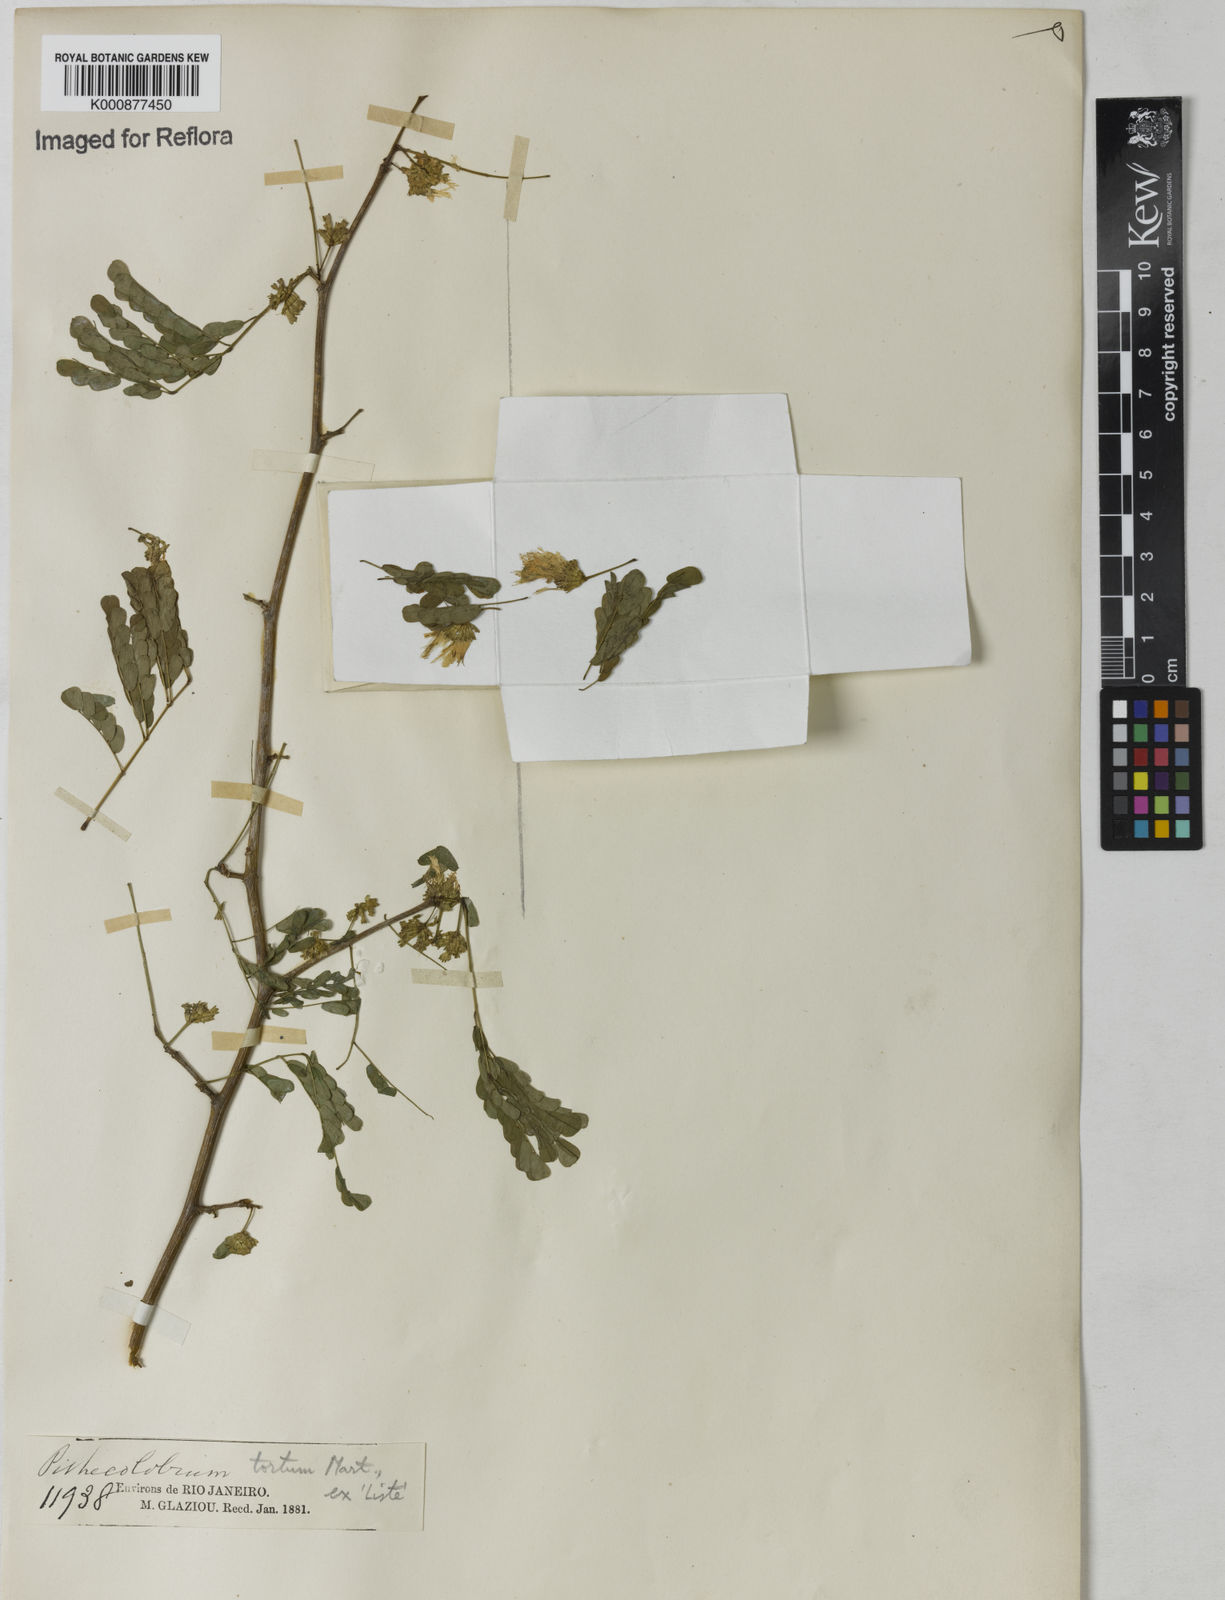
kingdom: Plantae
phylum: Tracheophyta
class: Magnoliopsida
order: Fabales
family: Fabaceae
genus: Chloroleucon
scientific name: Chloroleucon tortum
